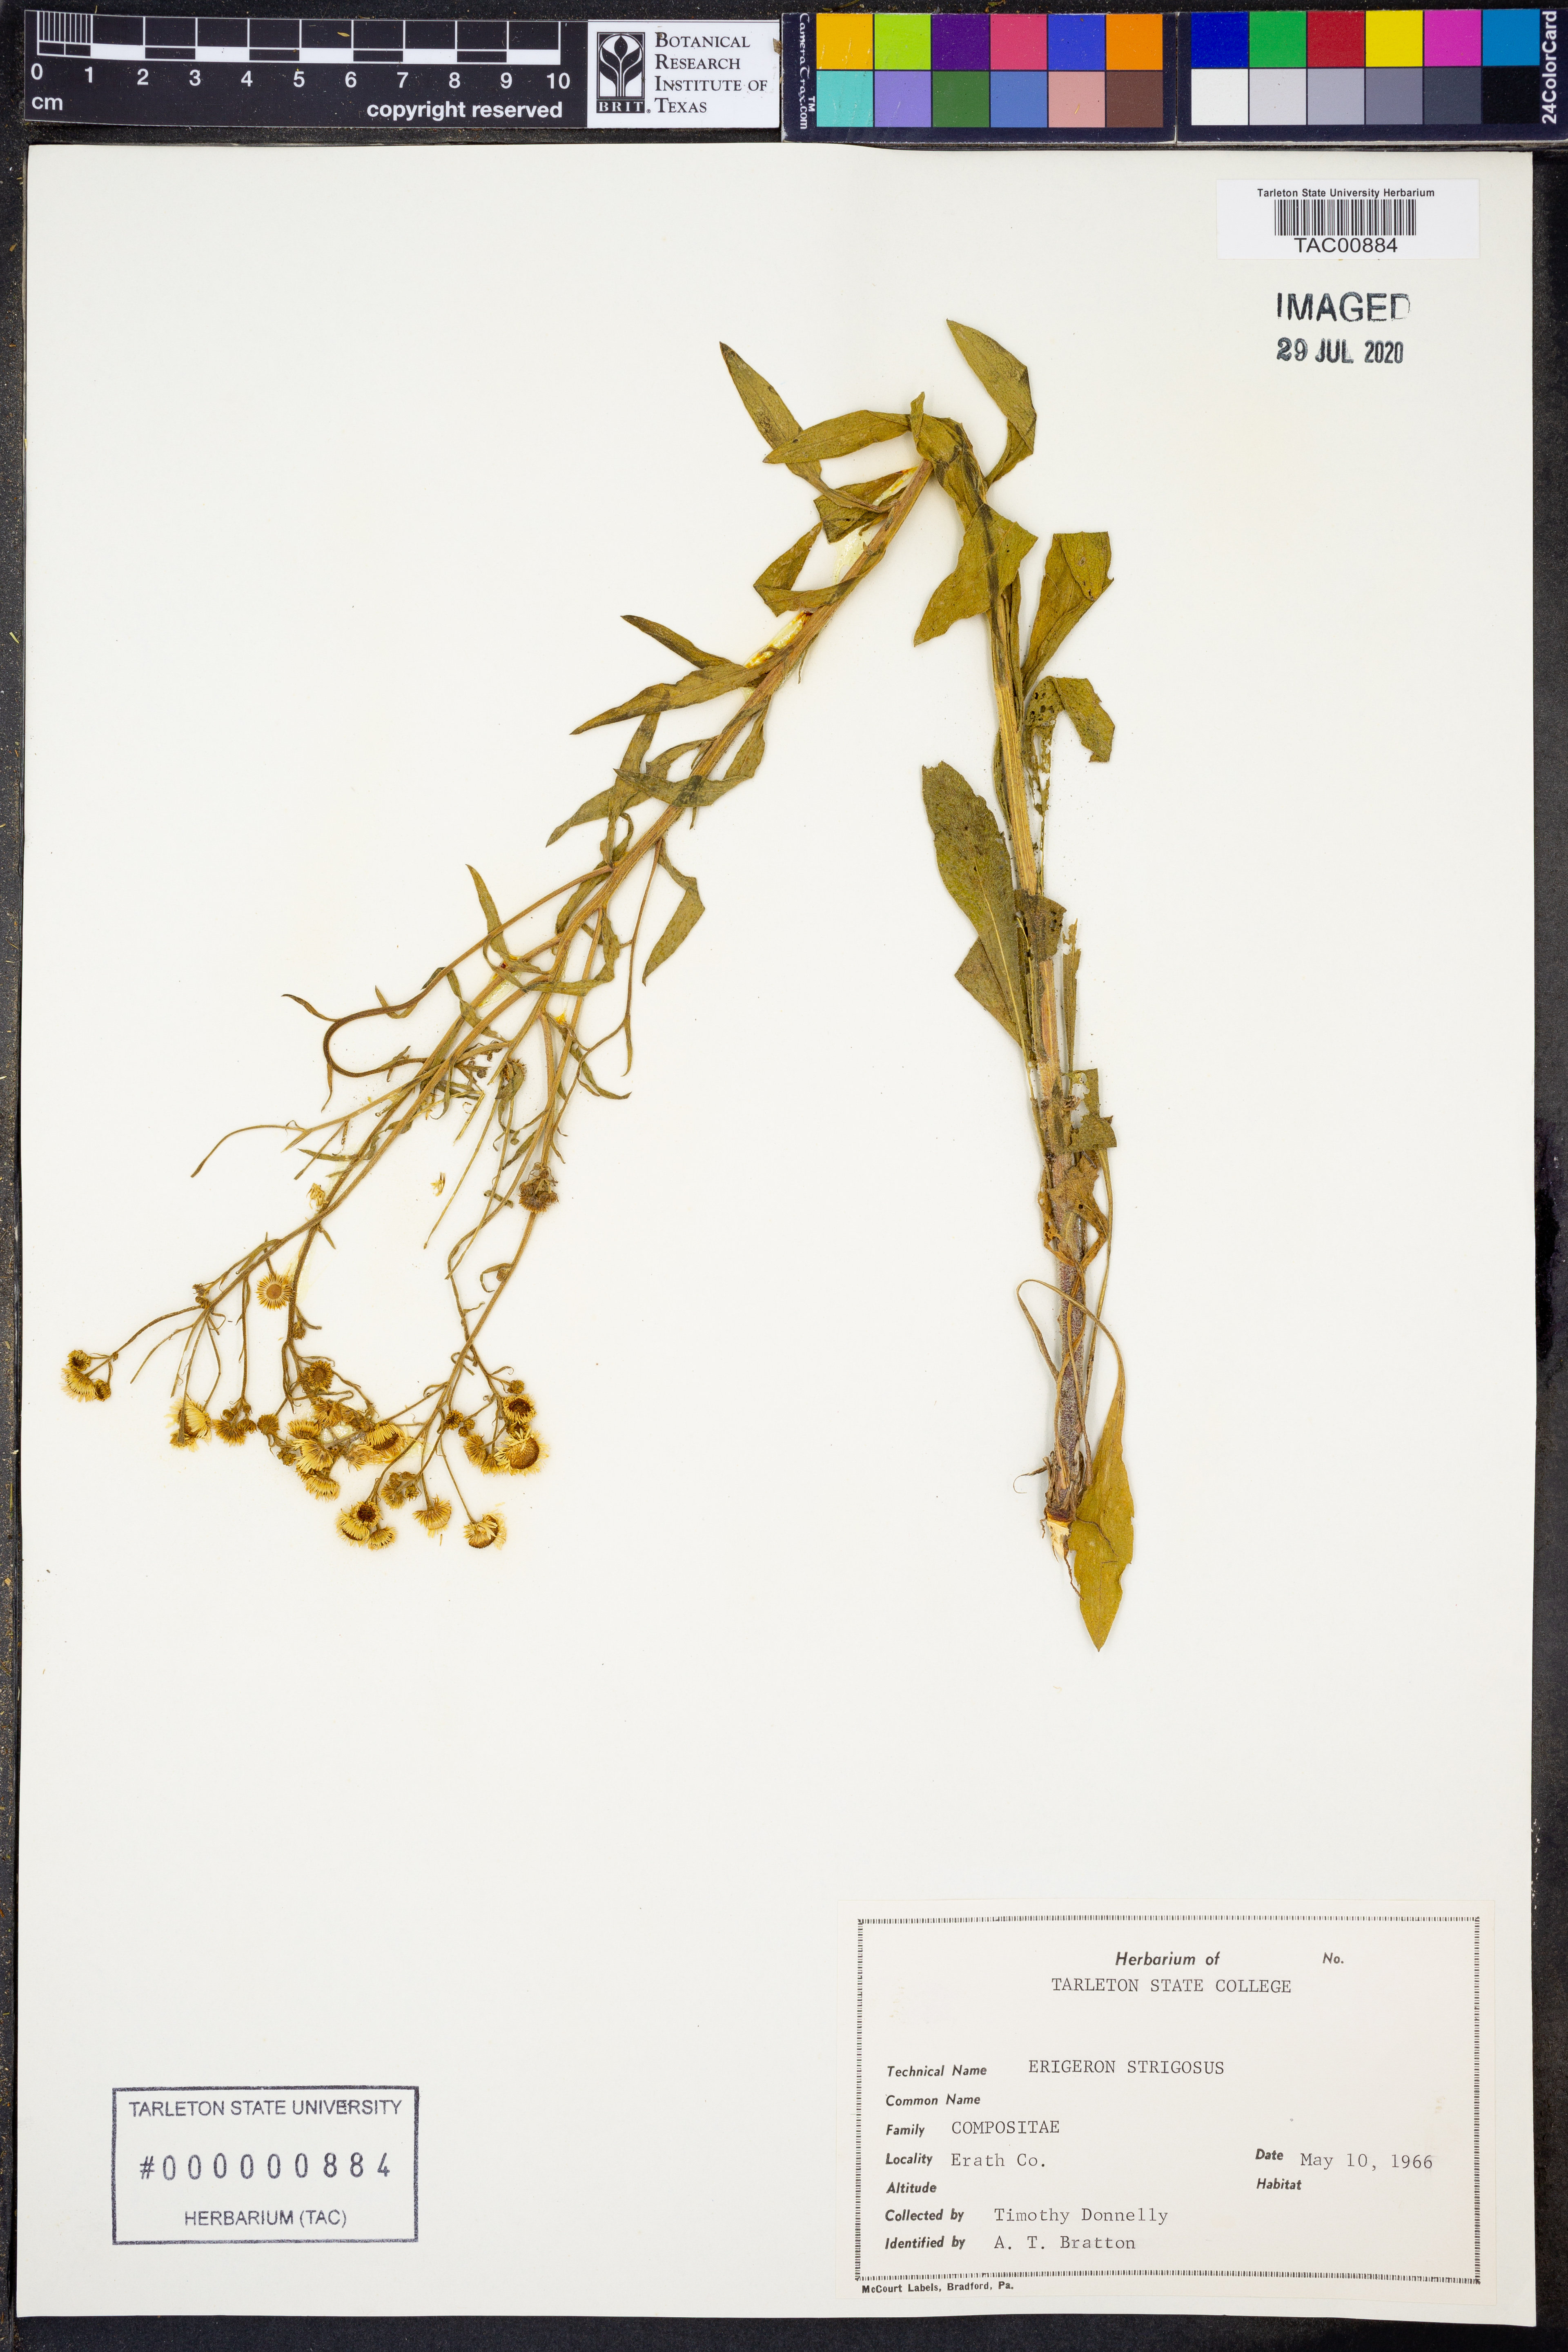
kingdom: Plantae
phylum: Tracheophyta
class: Magnoliopsida
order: Asterales
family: Asteraceae
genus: Erigeron
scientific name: Erigeron strigosus
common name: Common eastern fleabane
